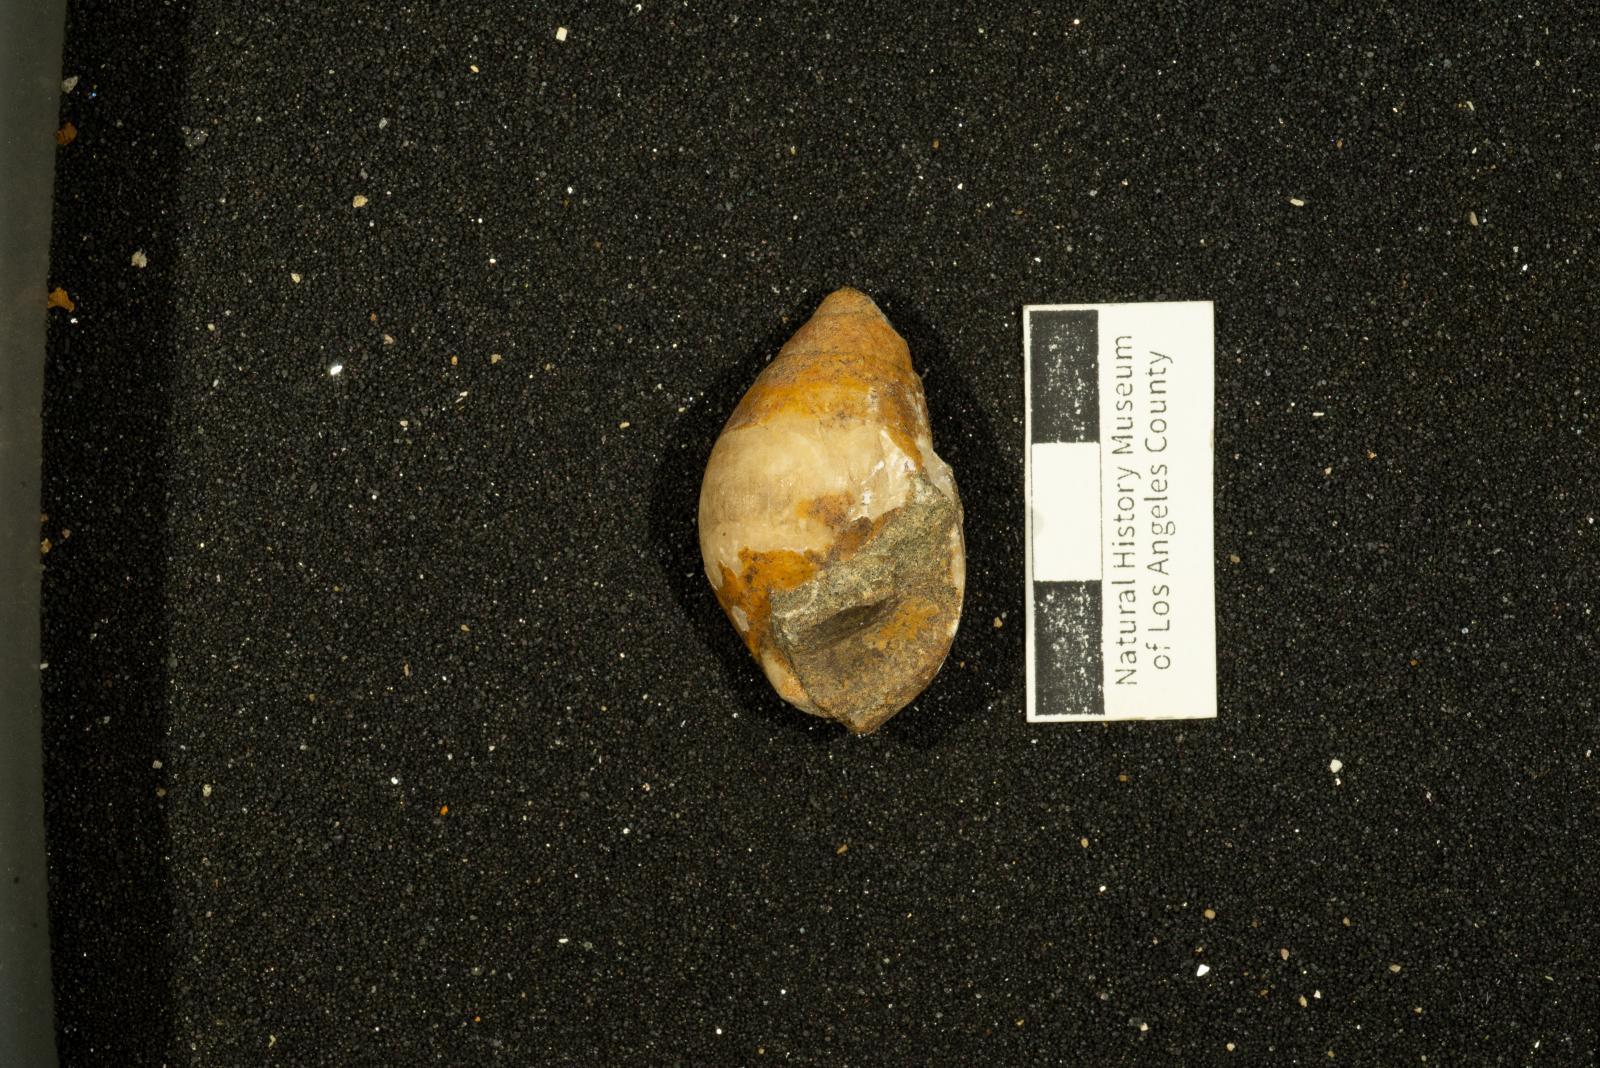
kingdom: Animalia
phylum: Mollusca
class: Gastropoda
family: Pseudomelaniidae
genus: Paosia
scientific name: Paosia Acteonina colusaensis
